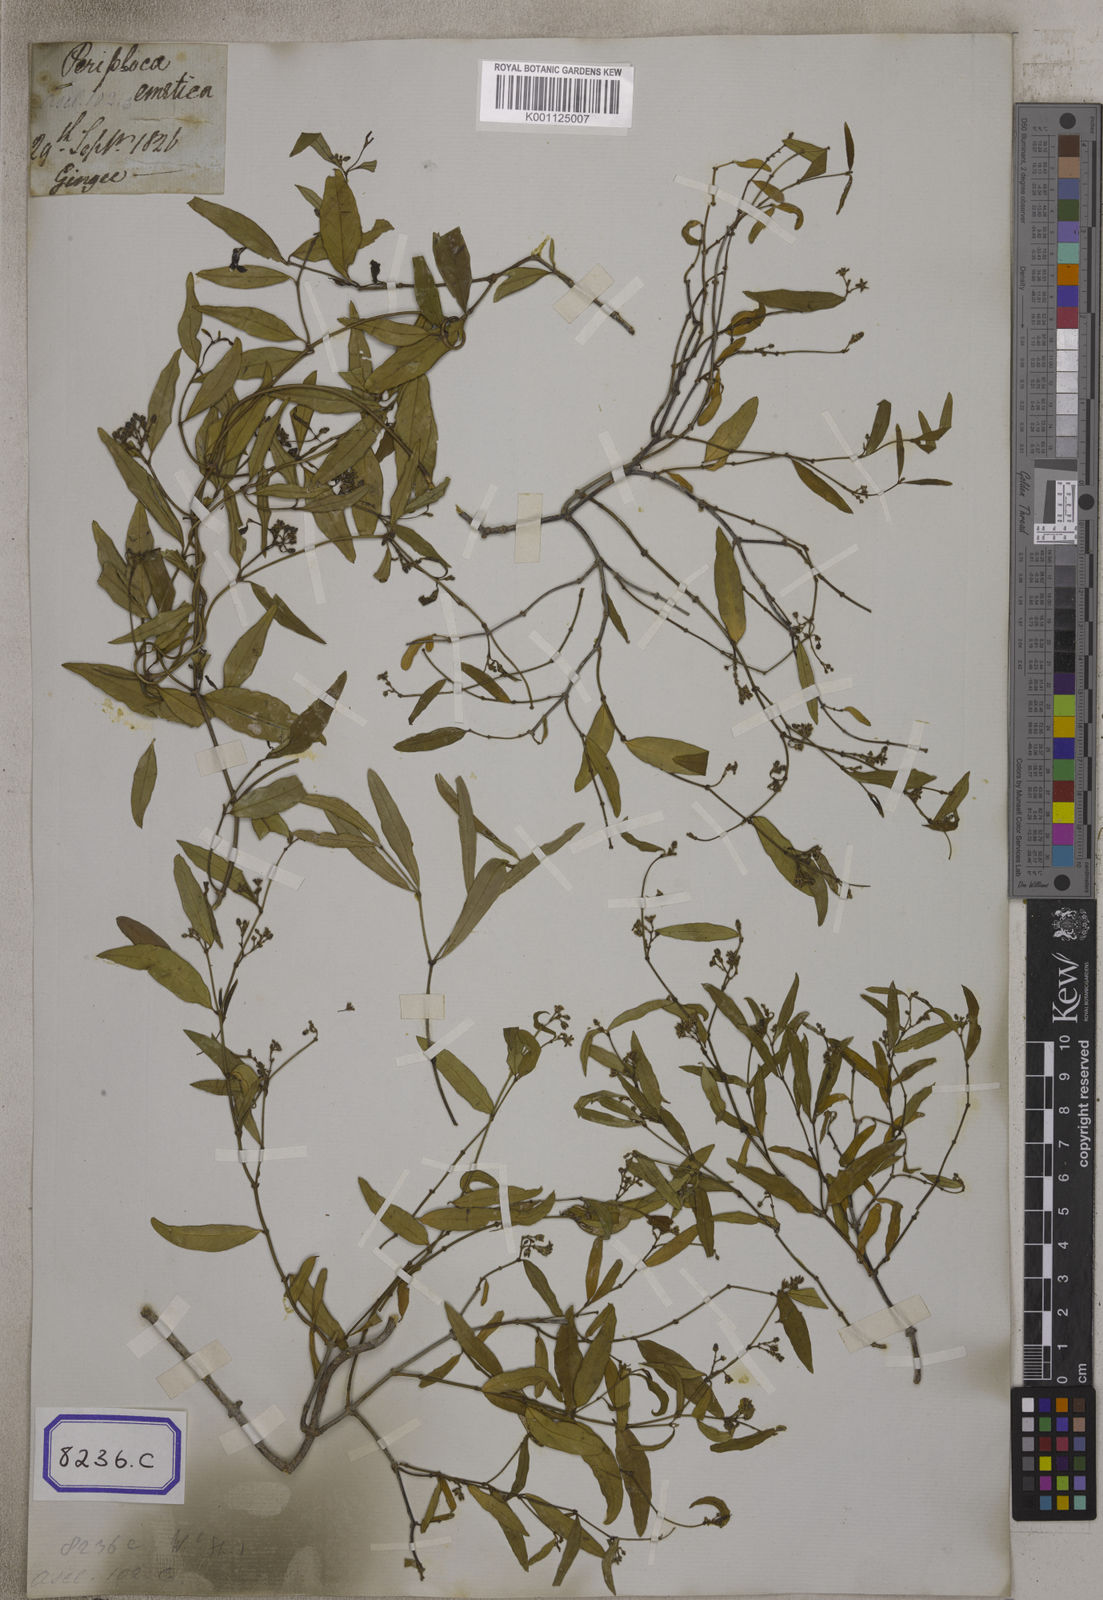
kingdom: Plantae
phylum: Tracheophyta
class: Magnoliopsida
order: Gentianales
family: Apocynaceae
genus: Secamone
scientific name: Secamone
